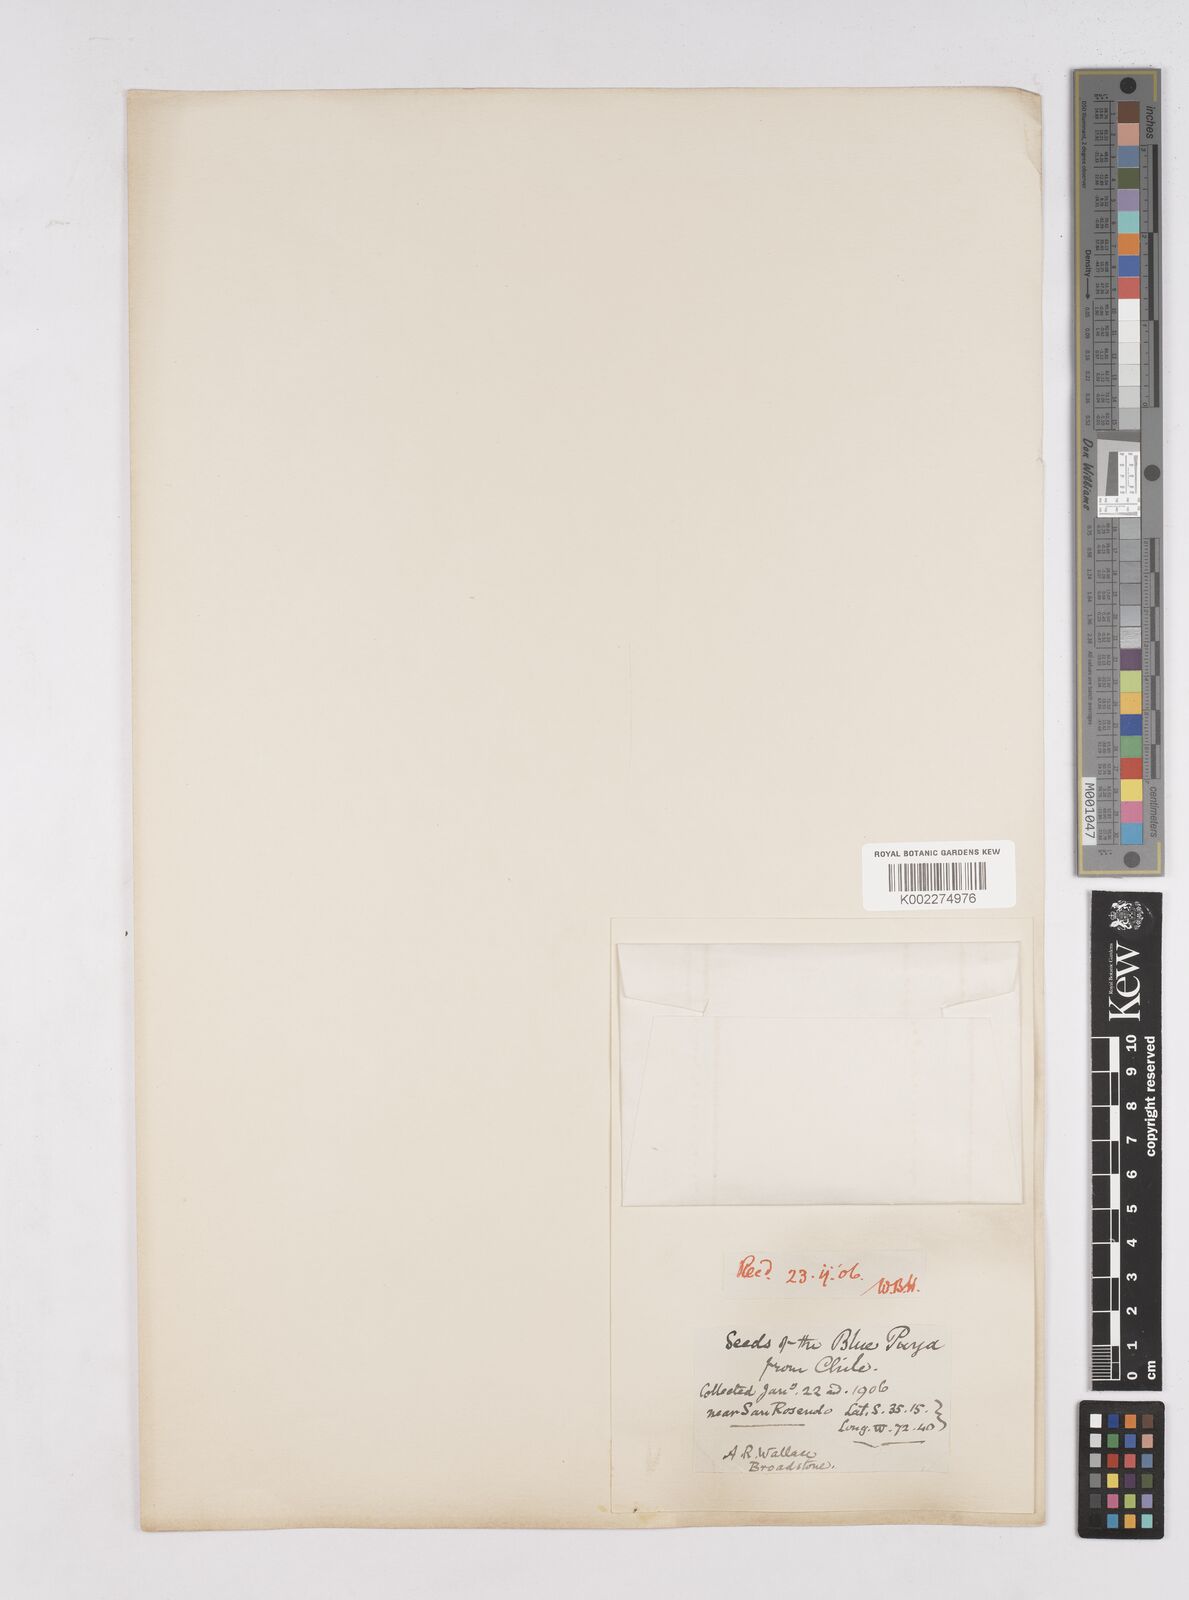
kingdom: Plantae
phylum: Tracheophyta
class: Liliopsida
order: Poales
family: Bromeliaceae
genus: Puya
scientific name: Puya
